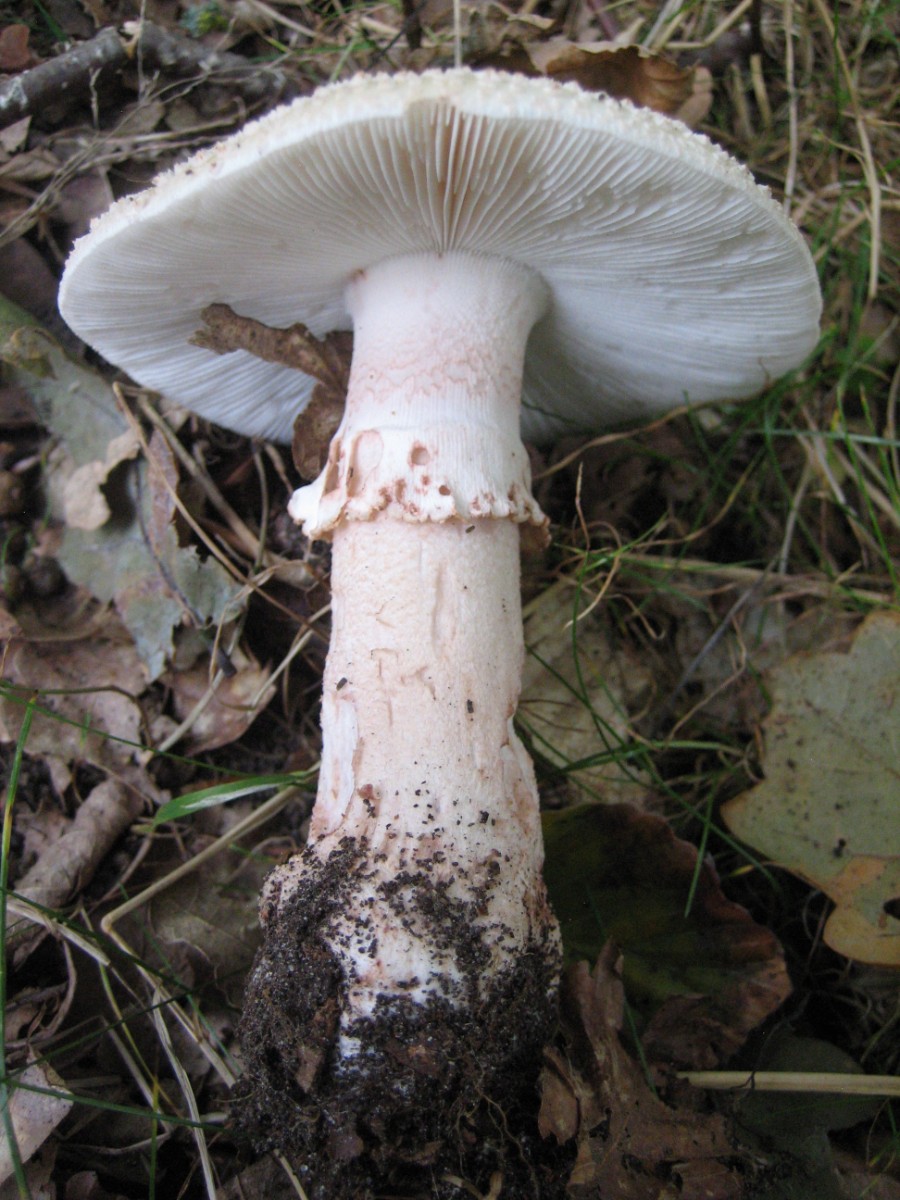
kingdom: Fungi
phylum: Basidiomycota
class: Agaricomycetes
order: Agaricales
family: Amanitaceae
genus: Amanita
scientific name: Amanita rubescens
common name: rødmende fluesvamp
